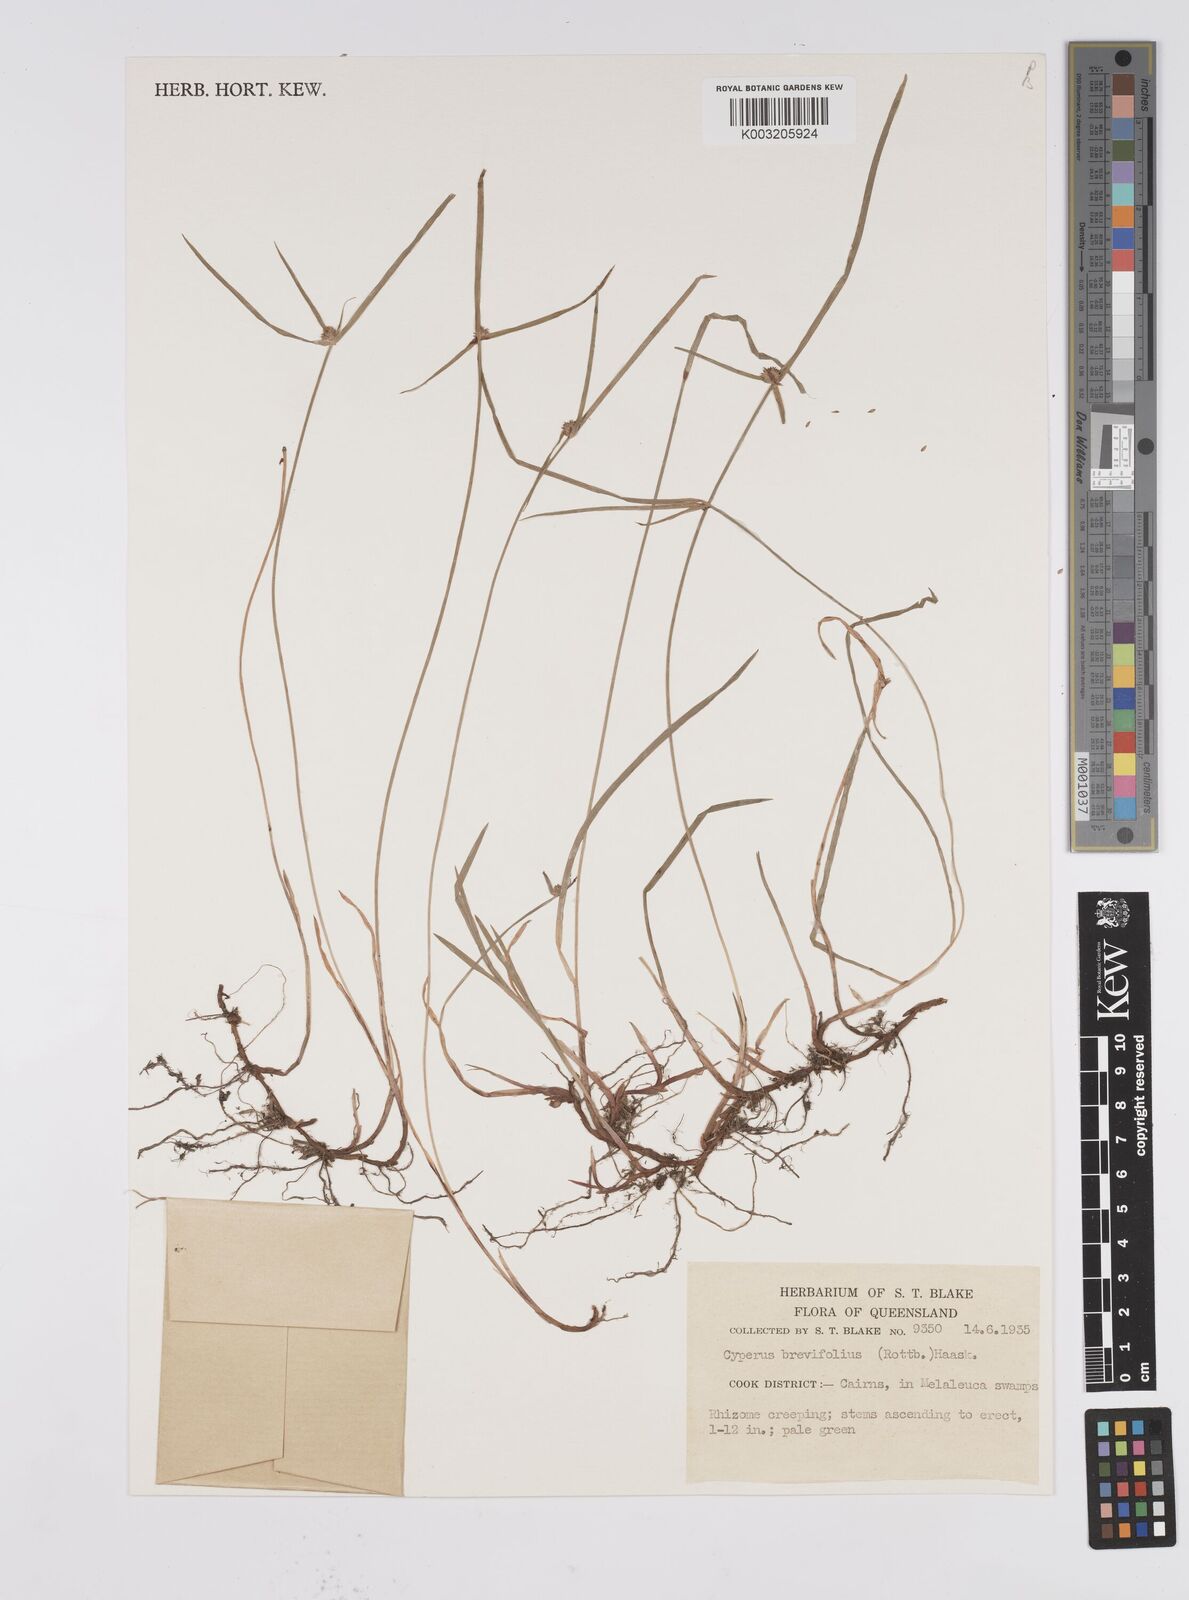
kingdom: Plantae
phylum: Tracheophyta
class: Liliopsida
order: Poales
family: Cyperaceae
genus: Cyperus
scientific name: Cyperus brevifolius
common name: Globe kyllinga
